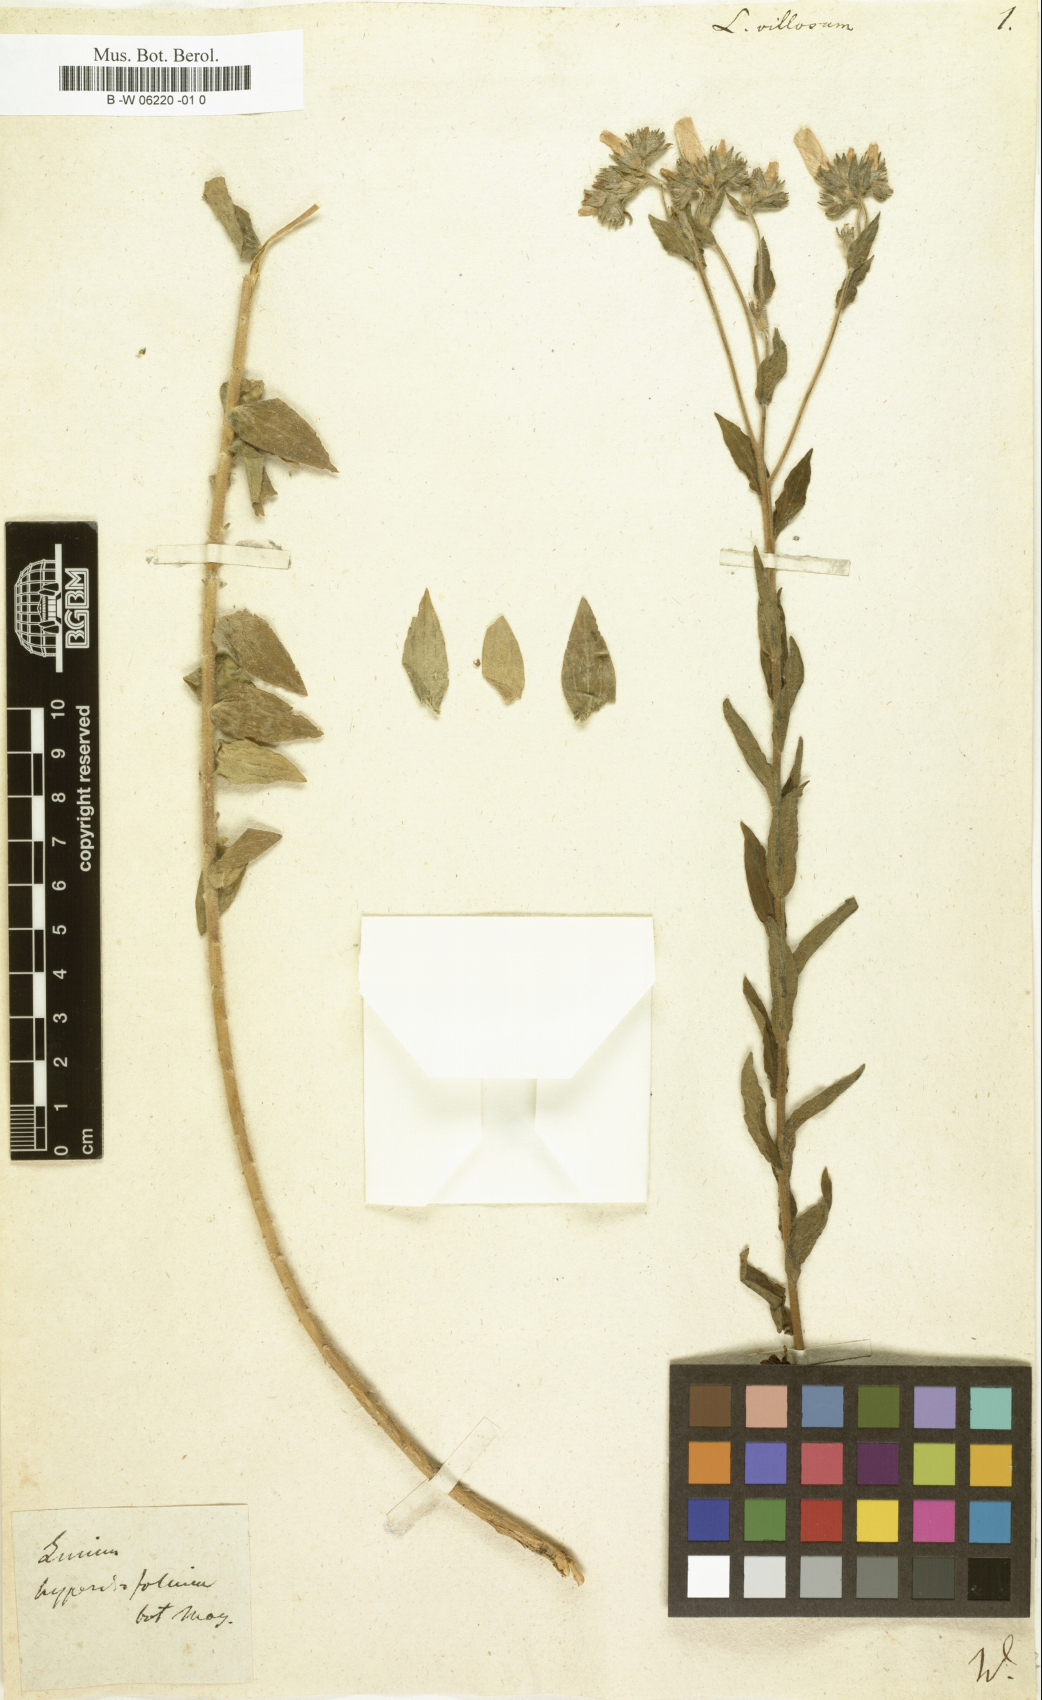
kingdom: Plantae
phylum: Tracheophyta
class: Magnoliopsida
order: Malpighiales
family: Linaceae
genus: Linum
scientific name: Linum villosum
